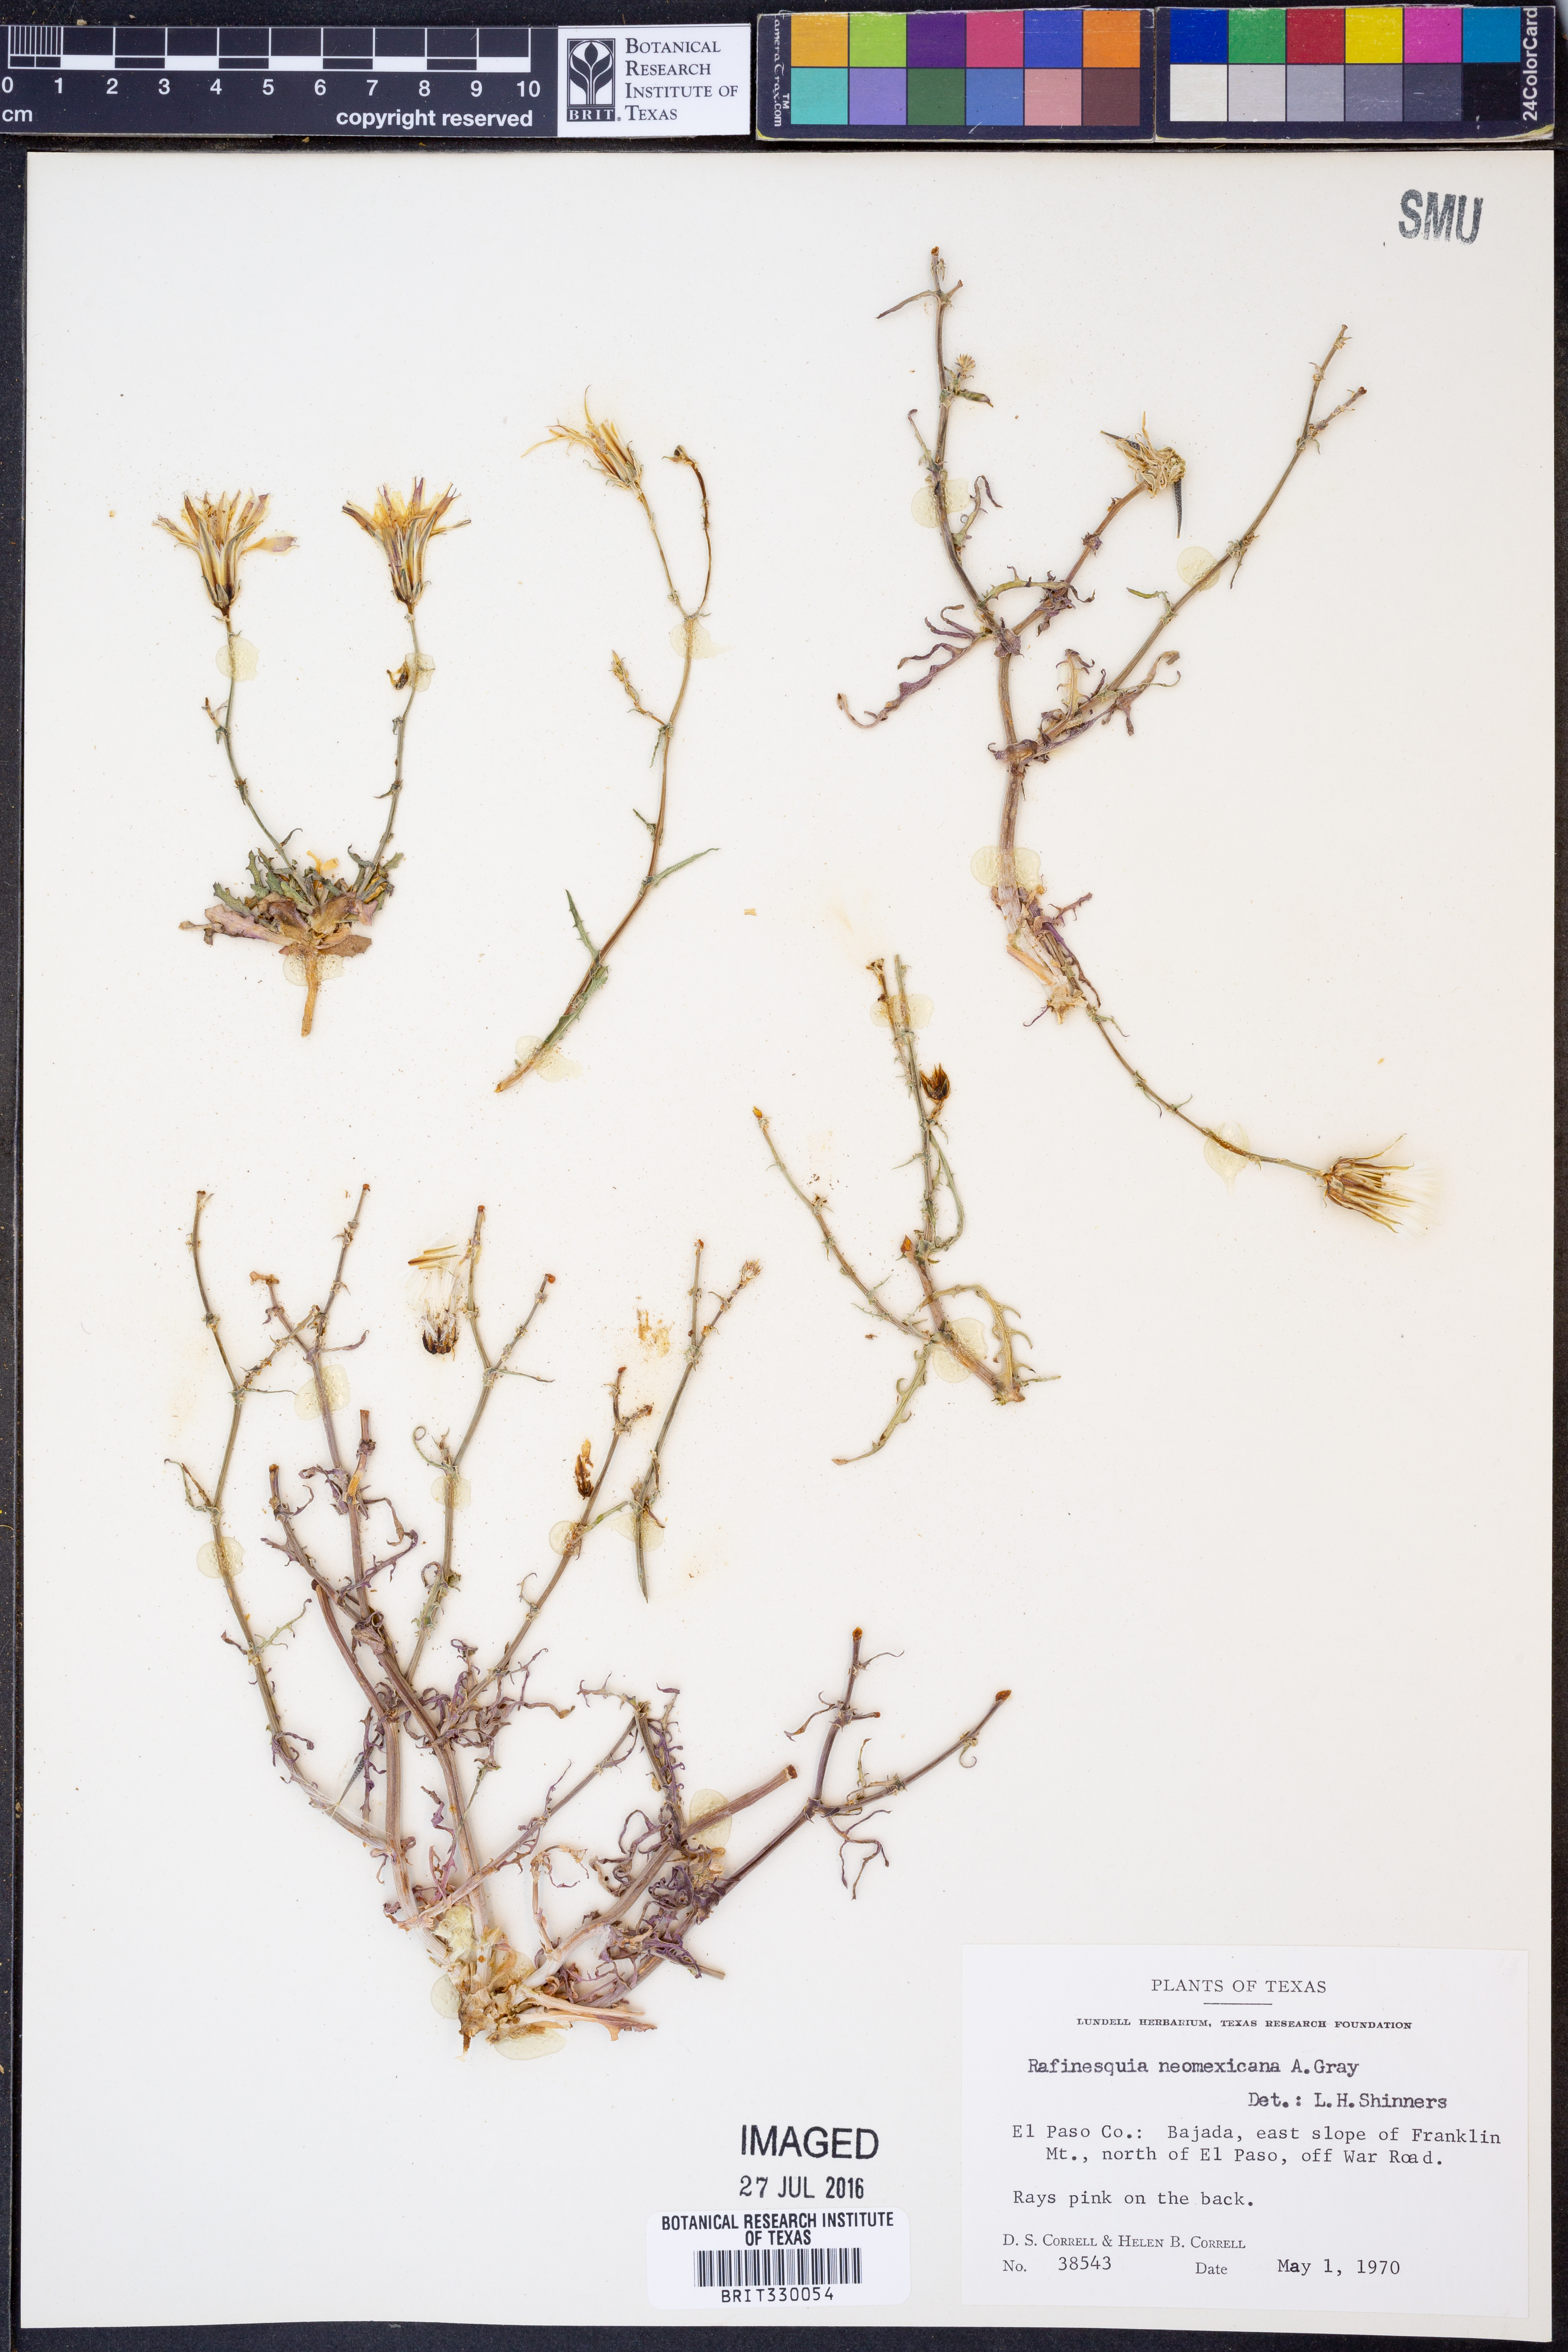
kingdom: Plantae
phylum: Tracheophyta
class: Magnoliopsida
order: Asterales
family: Asteraceae
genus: Rafinesquia
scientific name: Rafinesquia neomexicana
